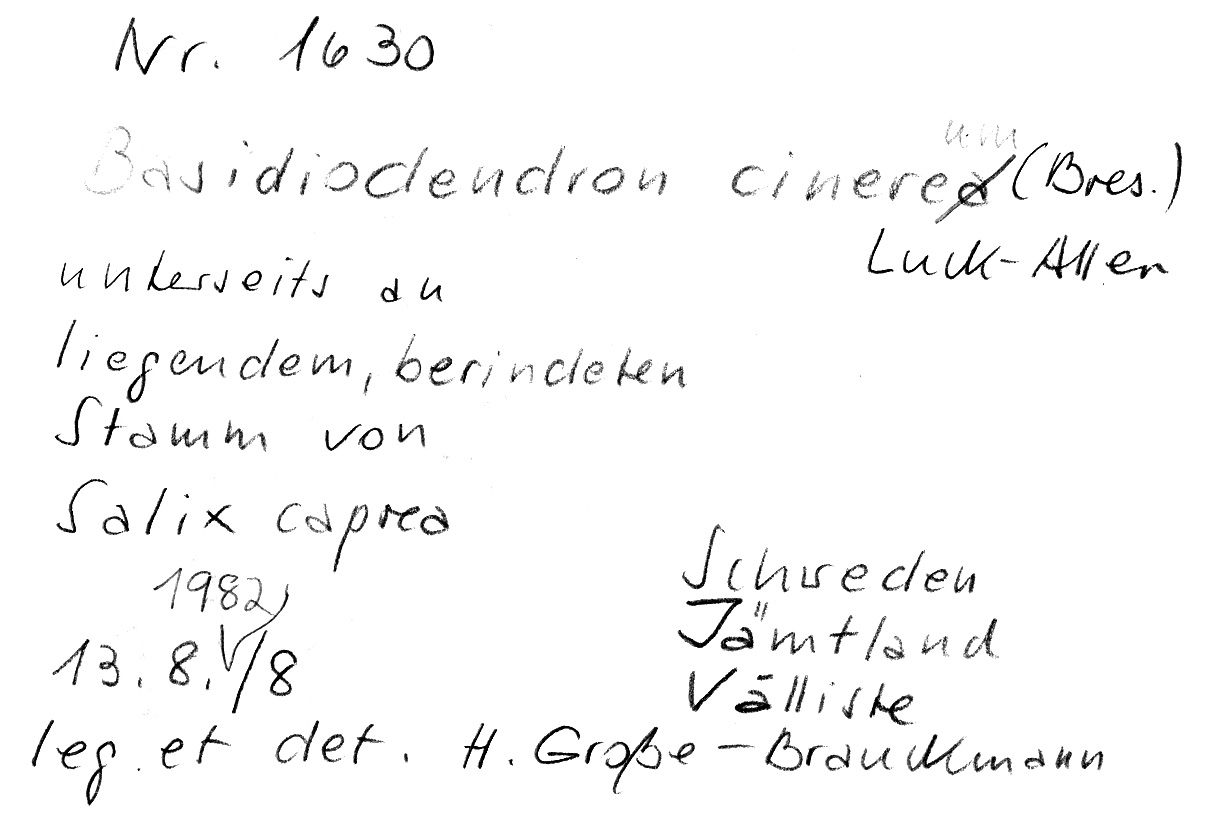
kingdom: Fungi
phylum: Basidiomycota
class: Agaricomycetes
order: Auriculariales
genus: Basidiodendron
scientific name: Basidiodendron cinereum
